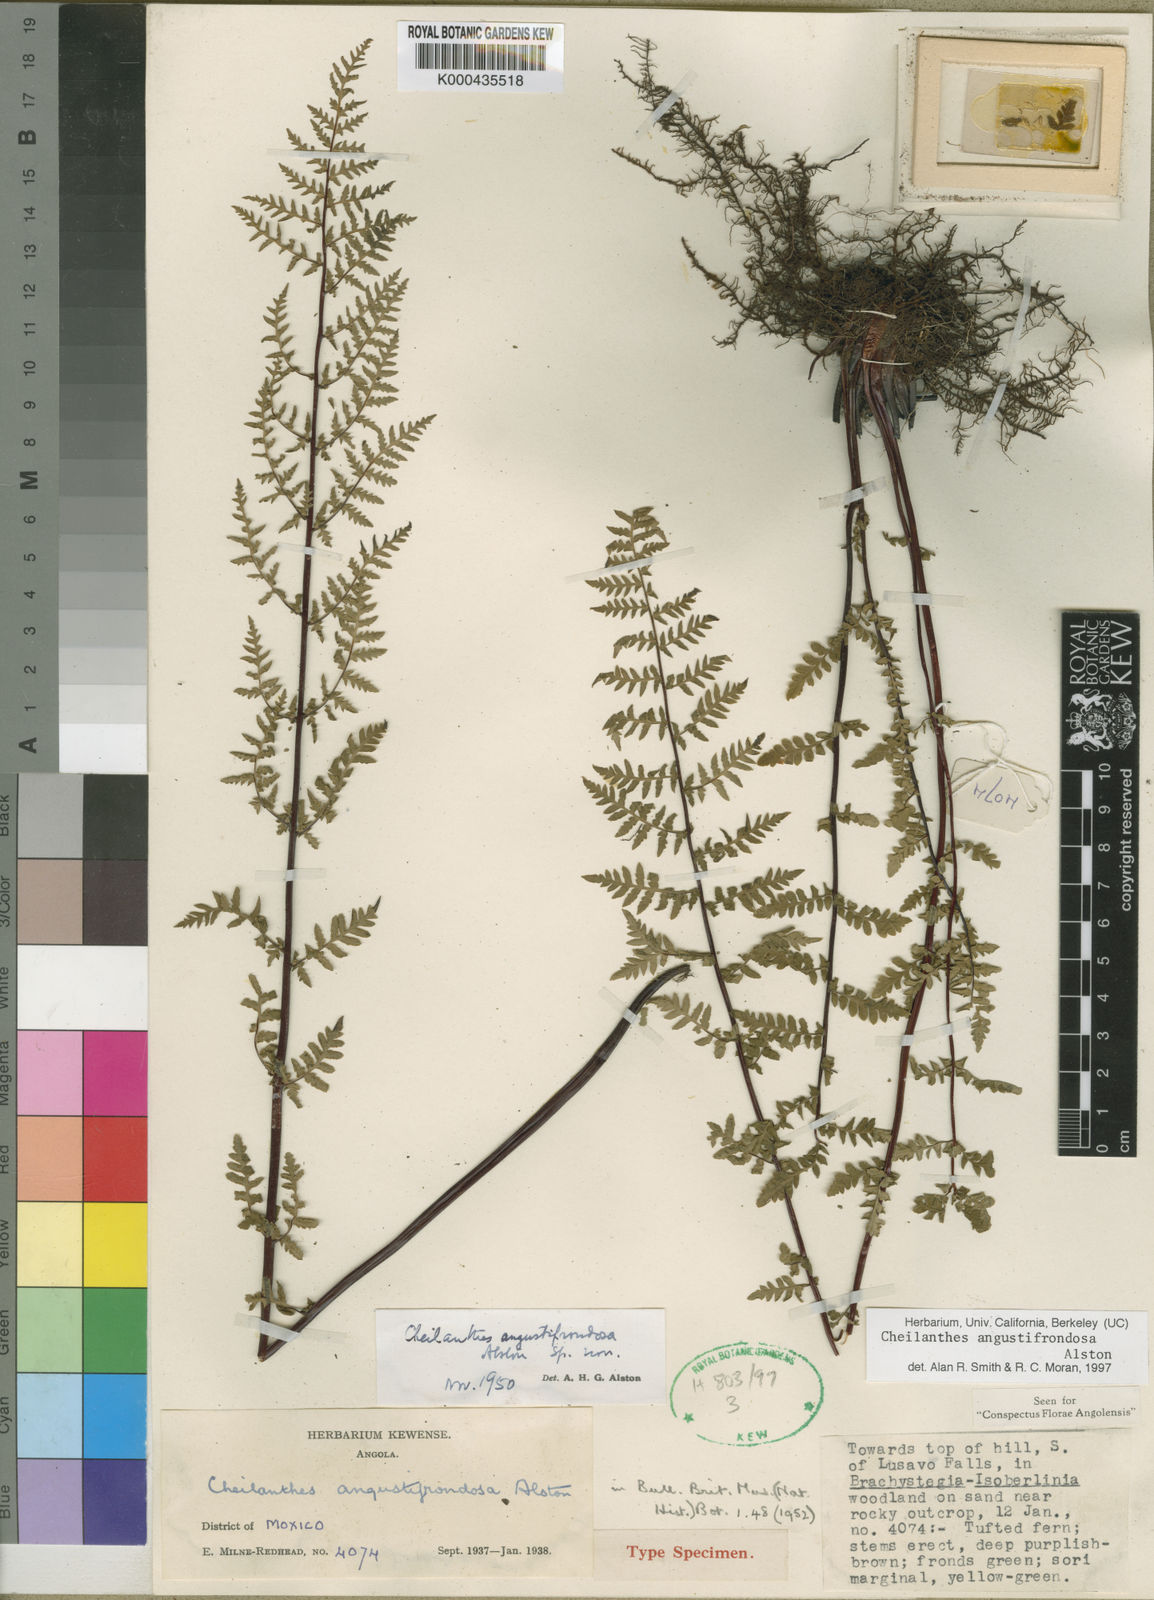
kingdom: Plantae
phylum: Tracheophyta
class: Polypodiopsida
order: Polypodiales
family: Pteridaceae
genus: Cheilanthes
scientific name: Cheilanthes angustifrondosa
